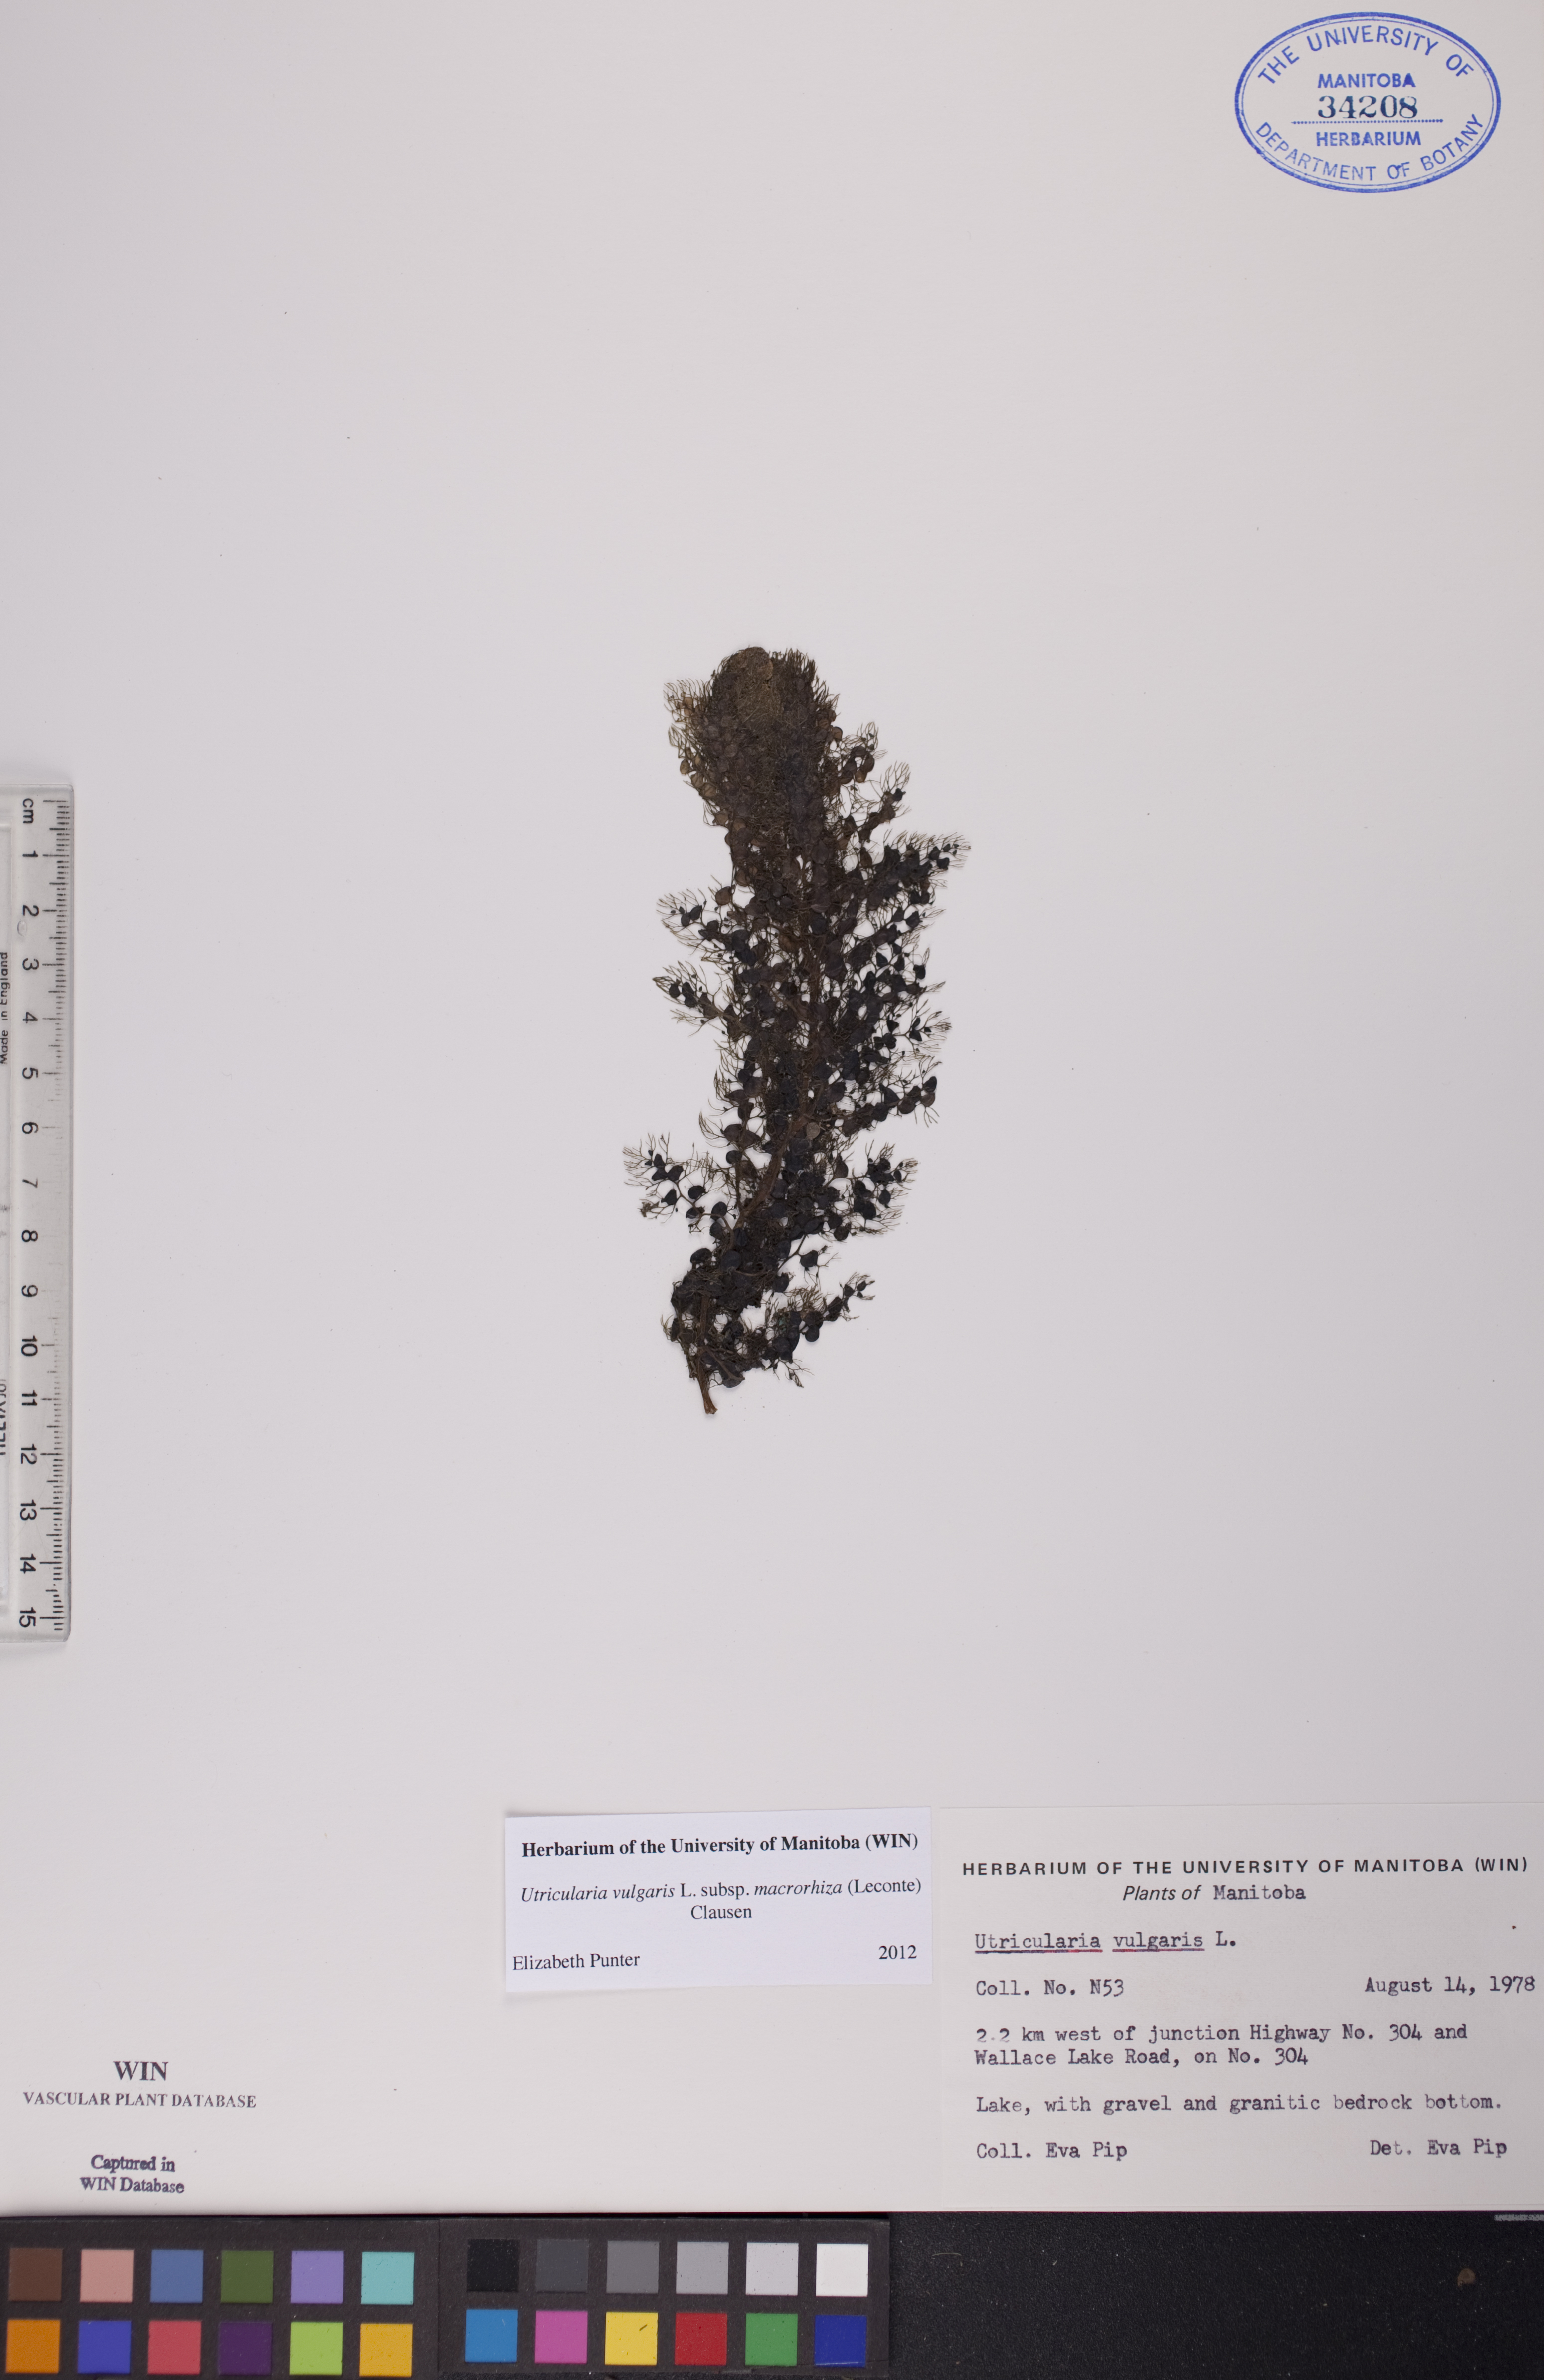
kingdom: Plantae
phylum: Tracheophyta
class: Magnoliopsida
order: Lamiales
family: Lentibulariaceae
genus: Utricularia
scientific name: Utricularia macrorhiza
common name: Common bladderwort
